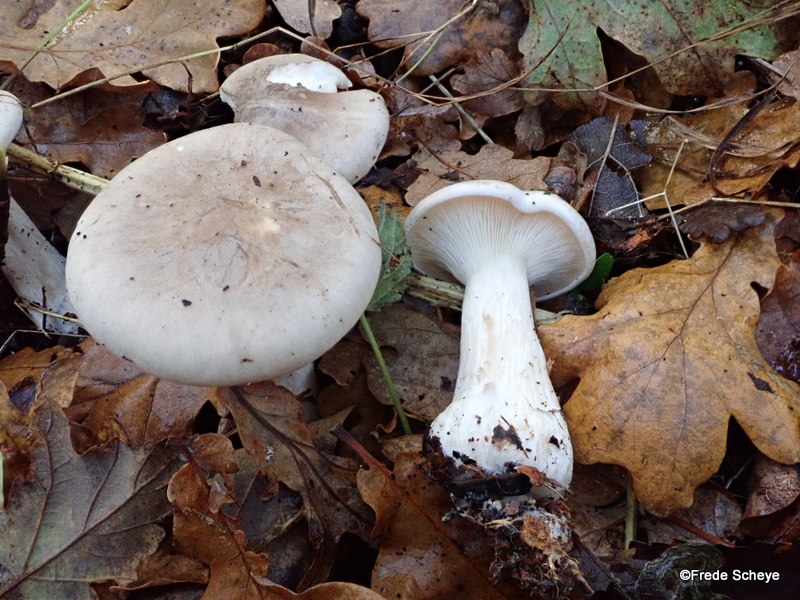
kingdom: Fungi
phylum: Basidiomycota
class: Agaricomycetes
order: Agaricales
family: Tricholomataceae
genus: Clitocybe
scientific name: Clitocybe nebularis
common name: tåge-tragthat
